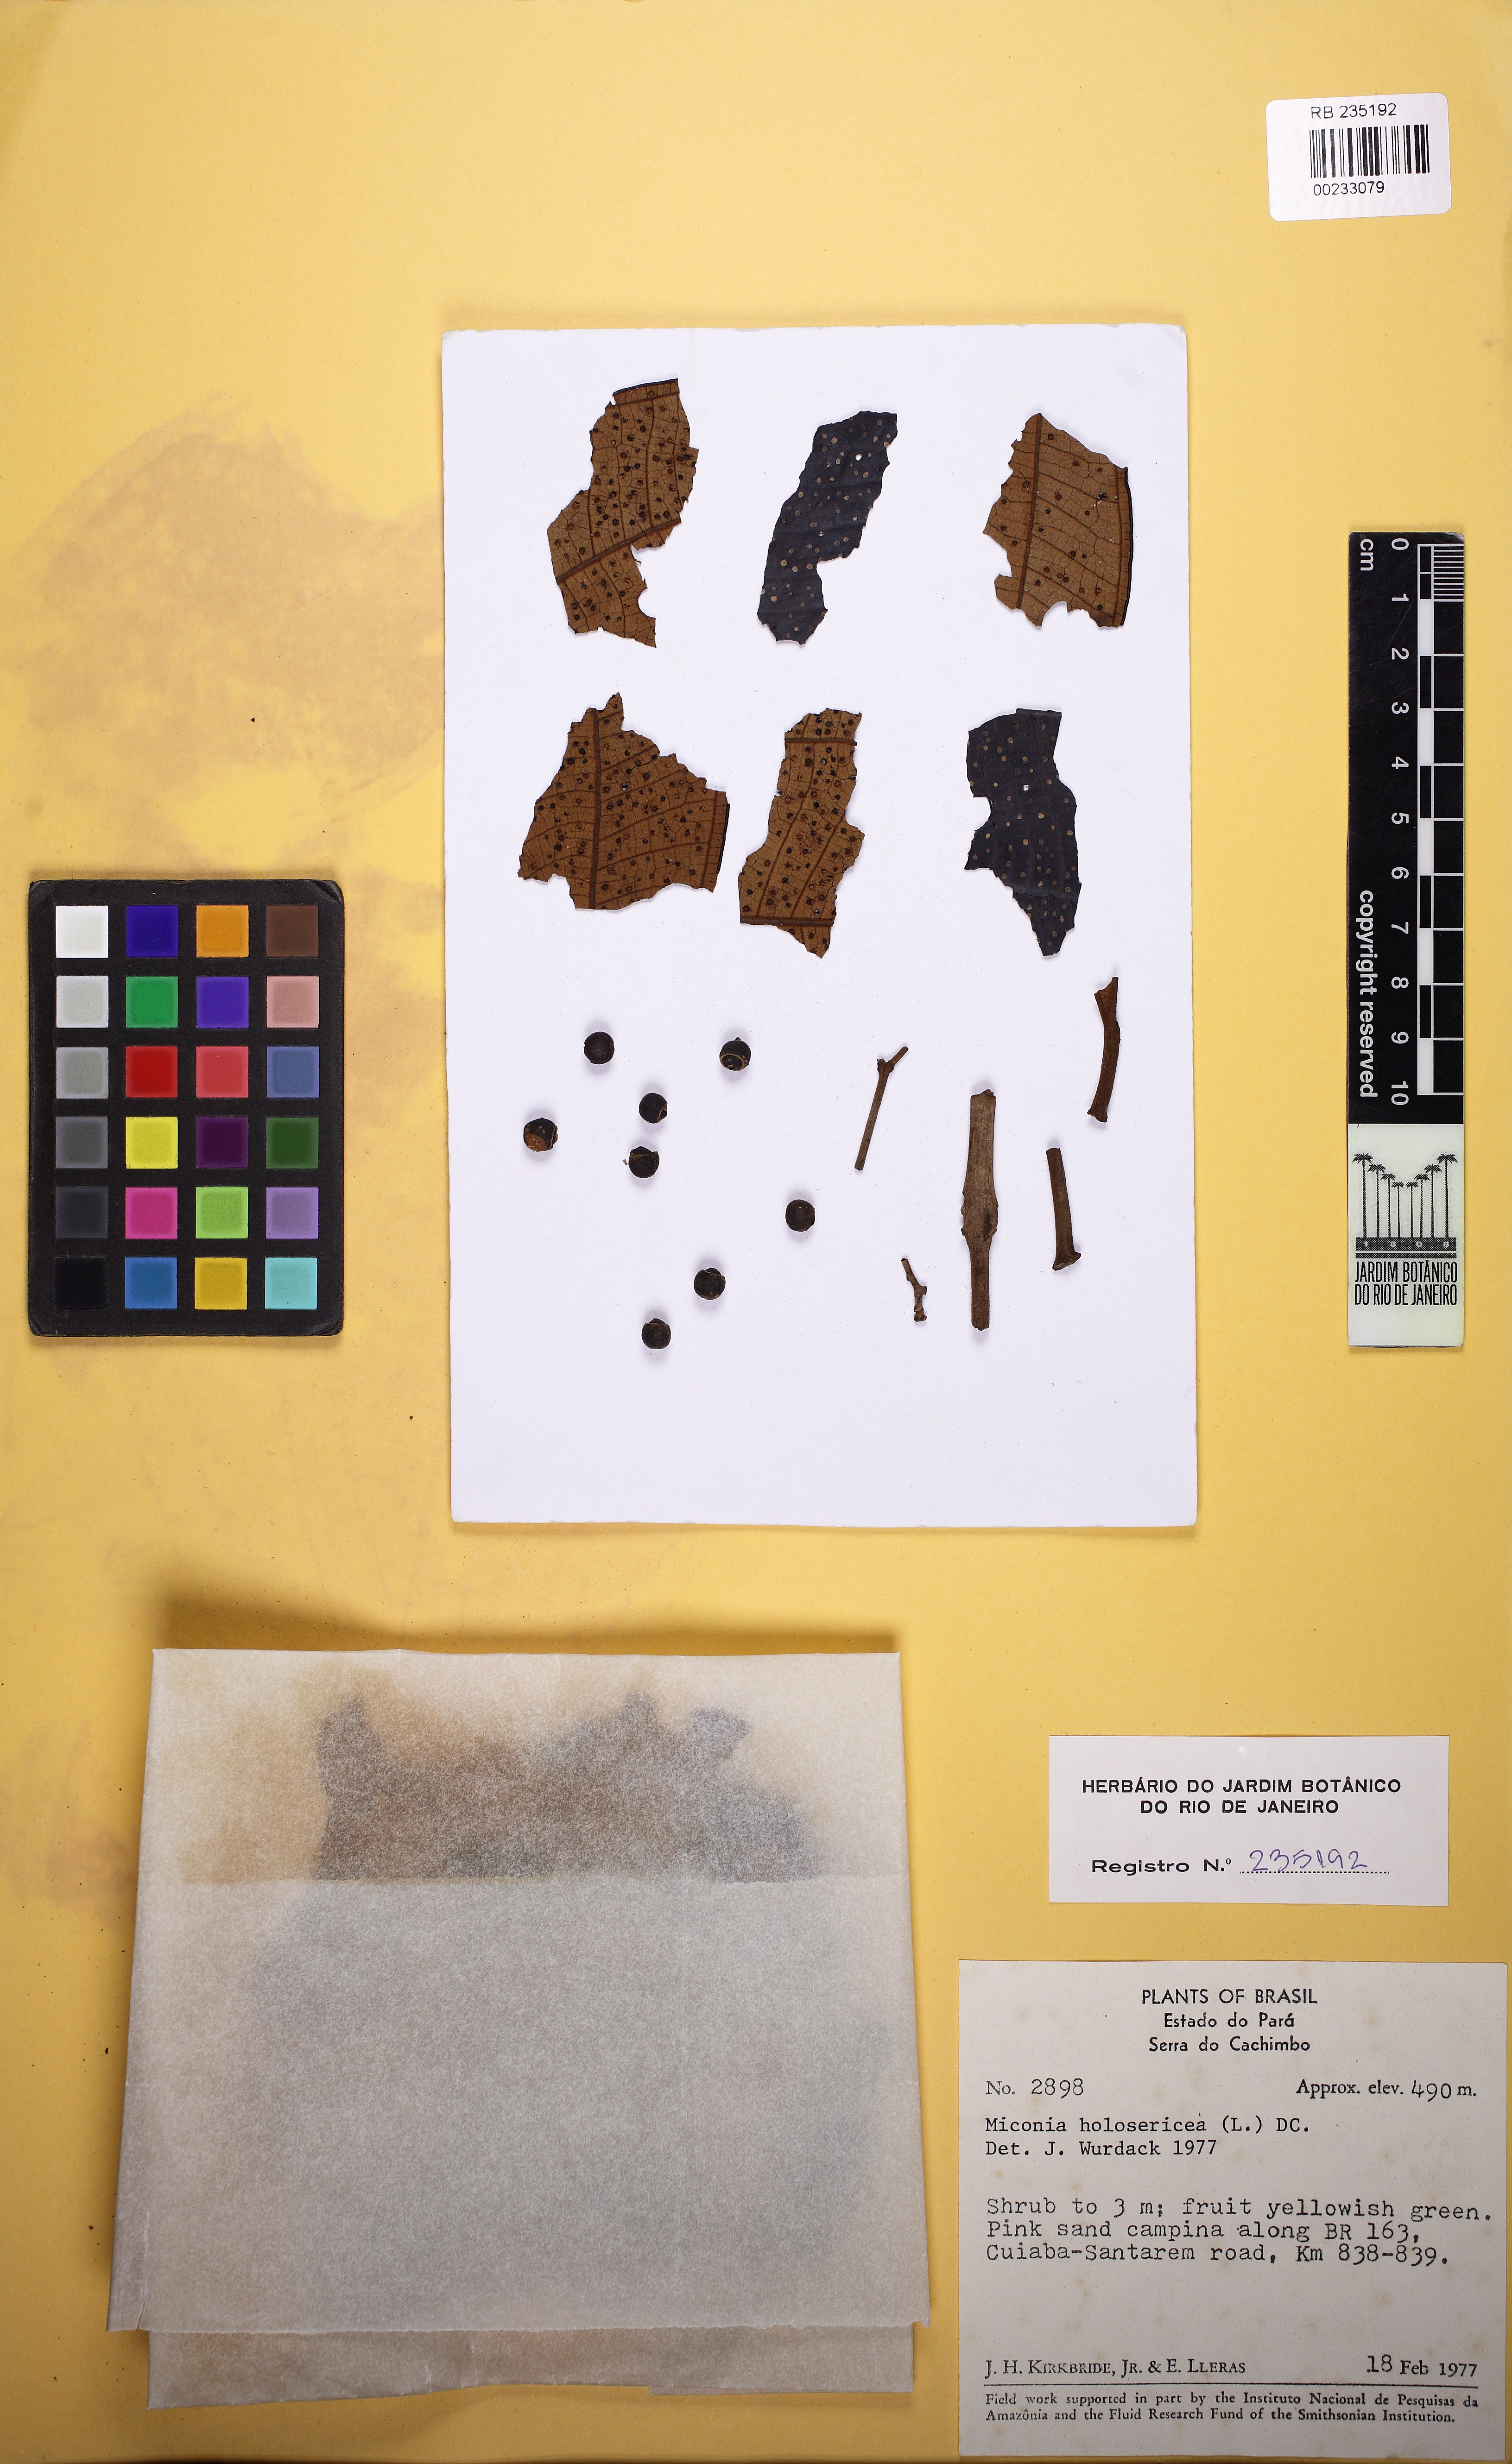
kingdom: Plantae
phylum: Tracheophyta
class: Magnoliopsida
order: Myrtales
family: Melastomataceae
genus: Miconia
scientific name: Miconia holosericea
